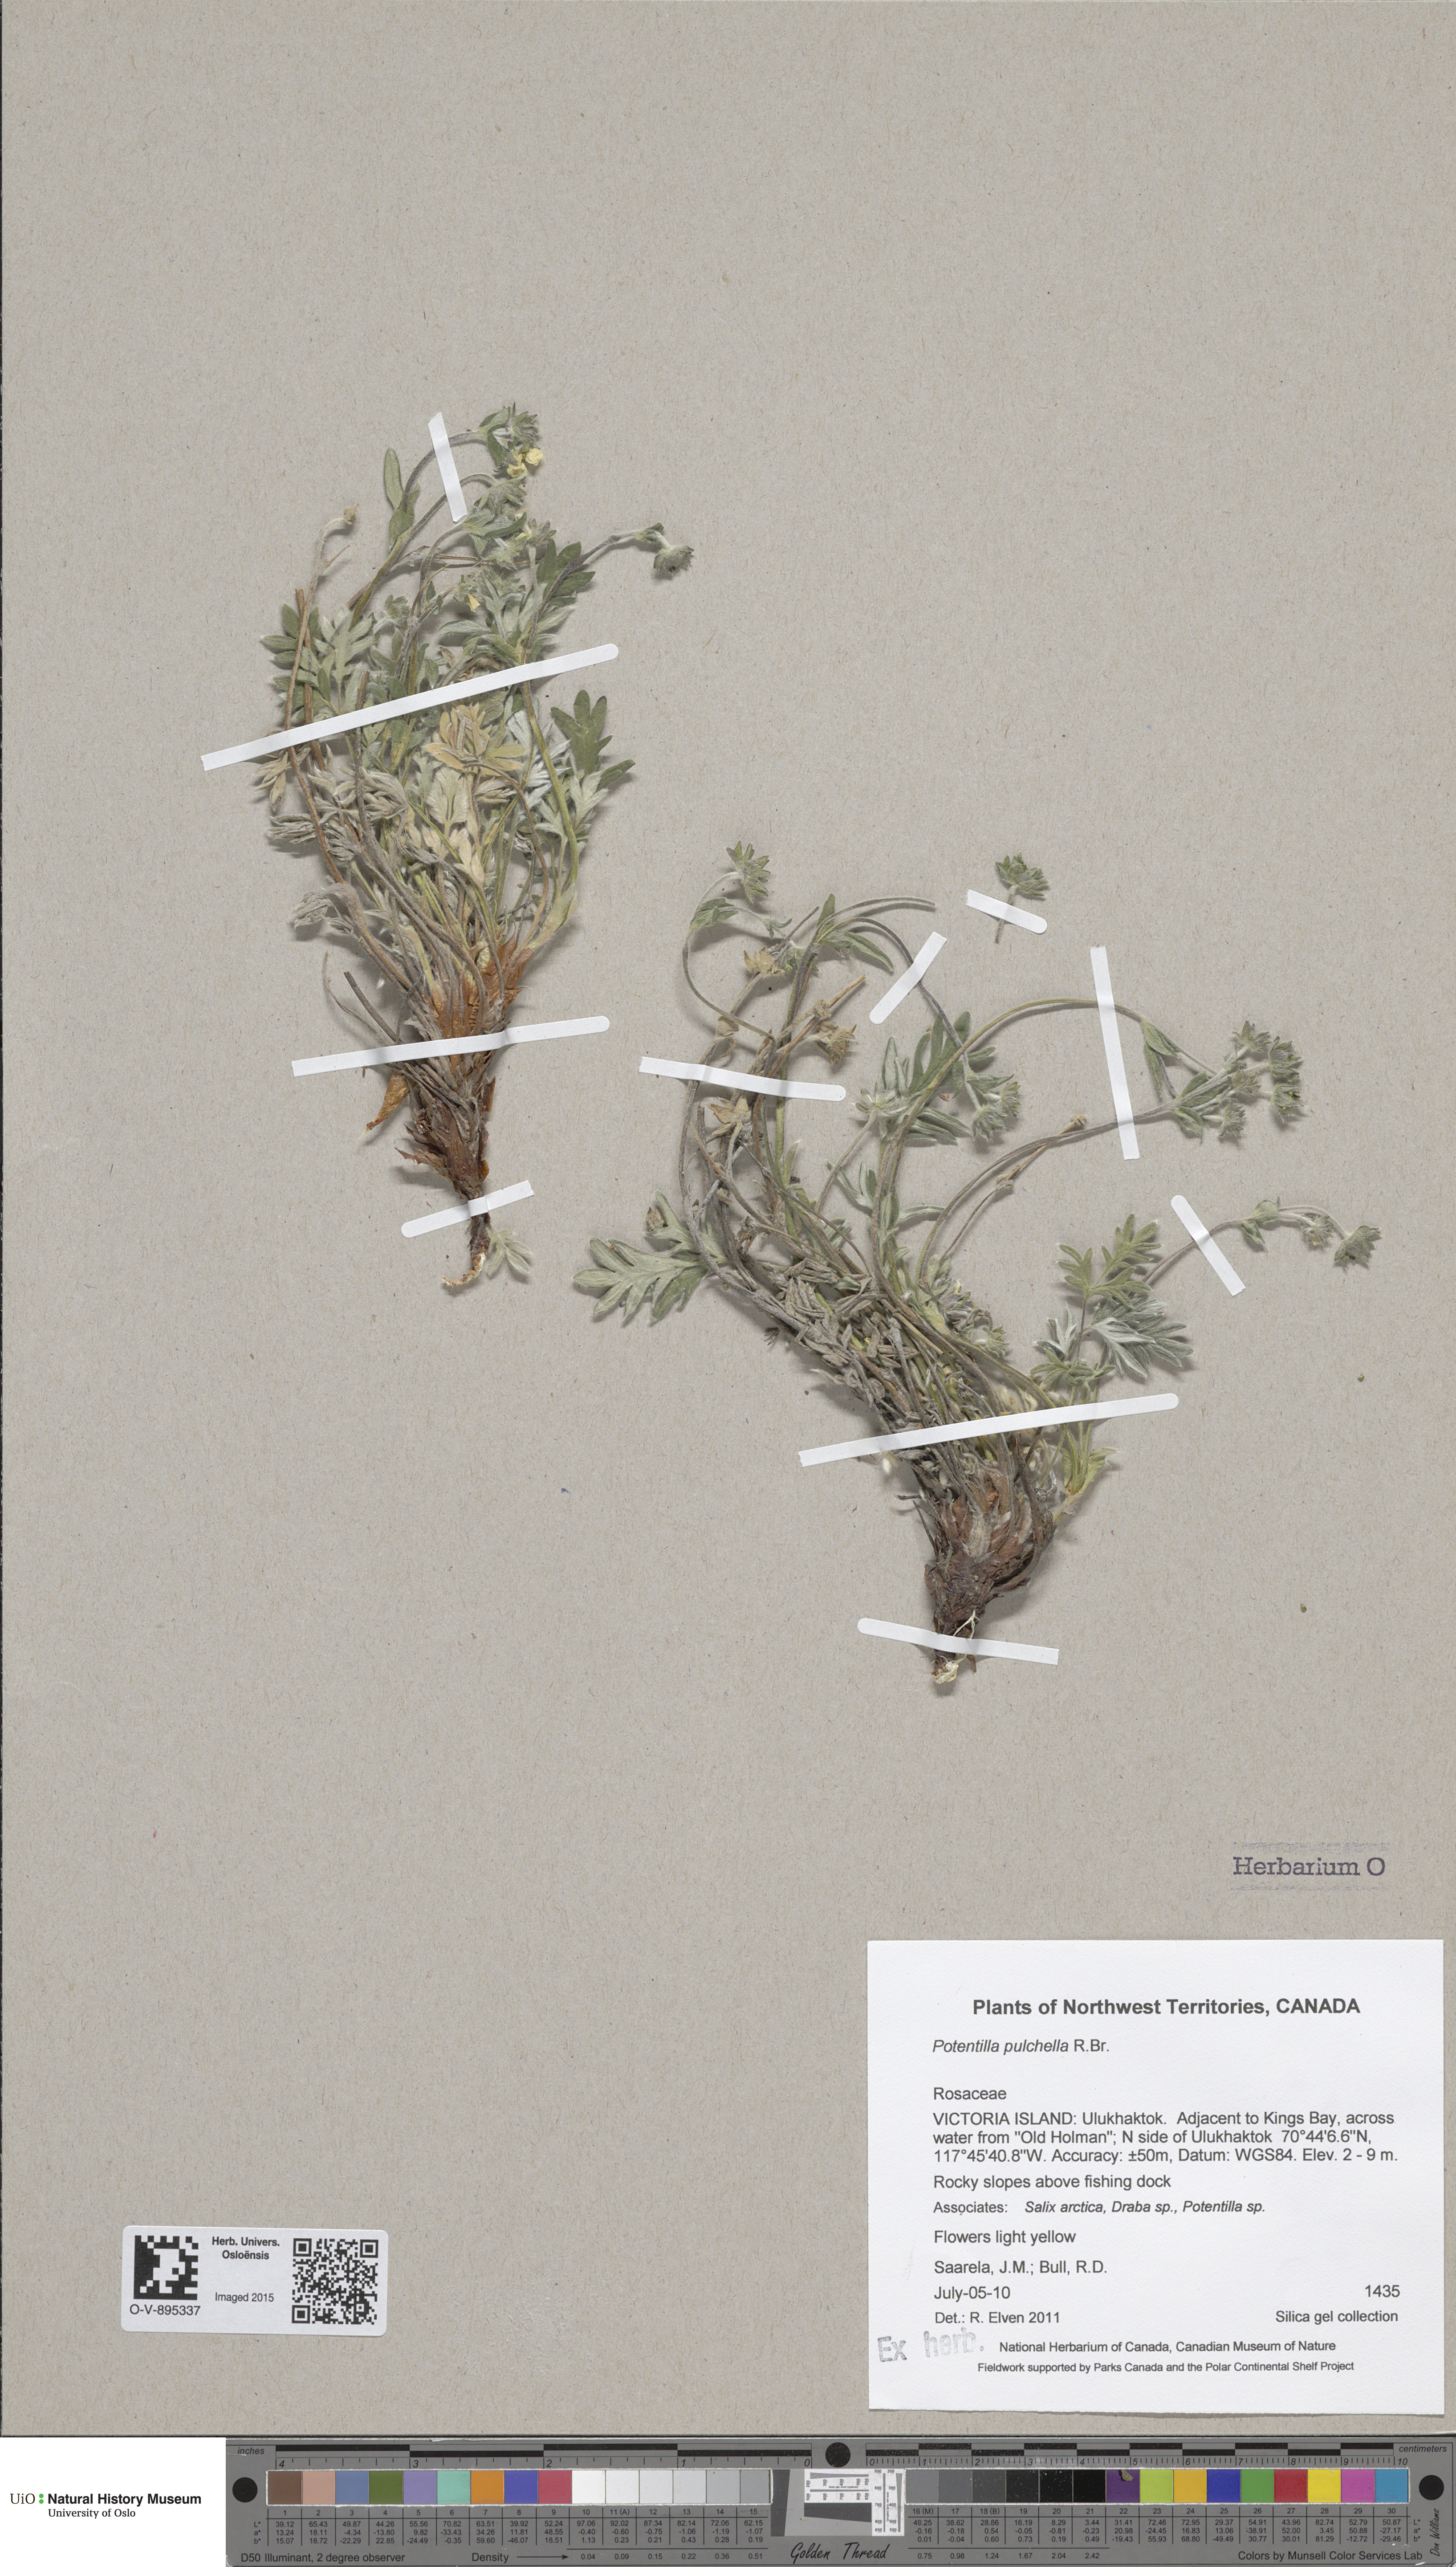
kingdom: Plantae
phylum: Tracheophyta
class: Magnoliopsida
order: Rosales
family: Rosaceae
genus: Potentilla
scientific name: Potentilla pulchella
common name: Pretty cinquefoil
